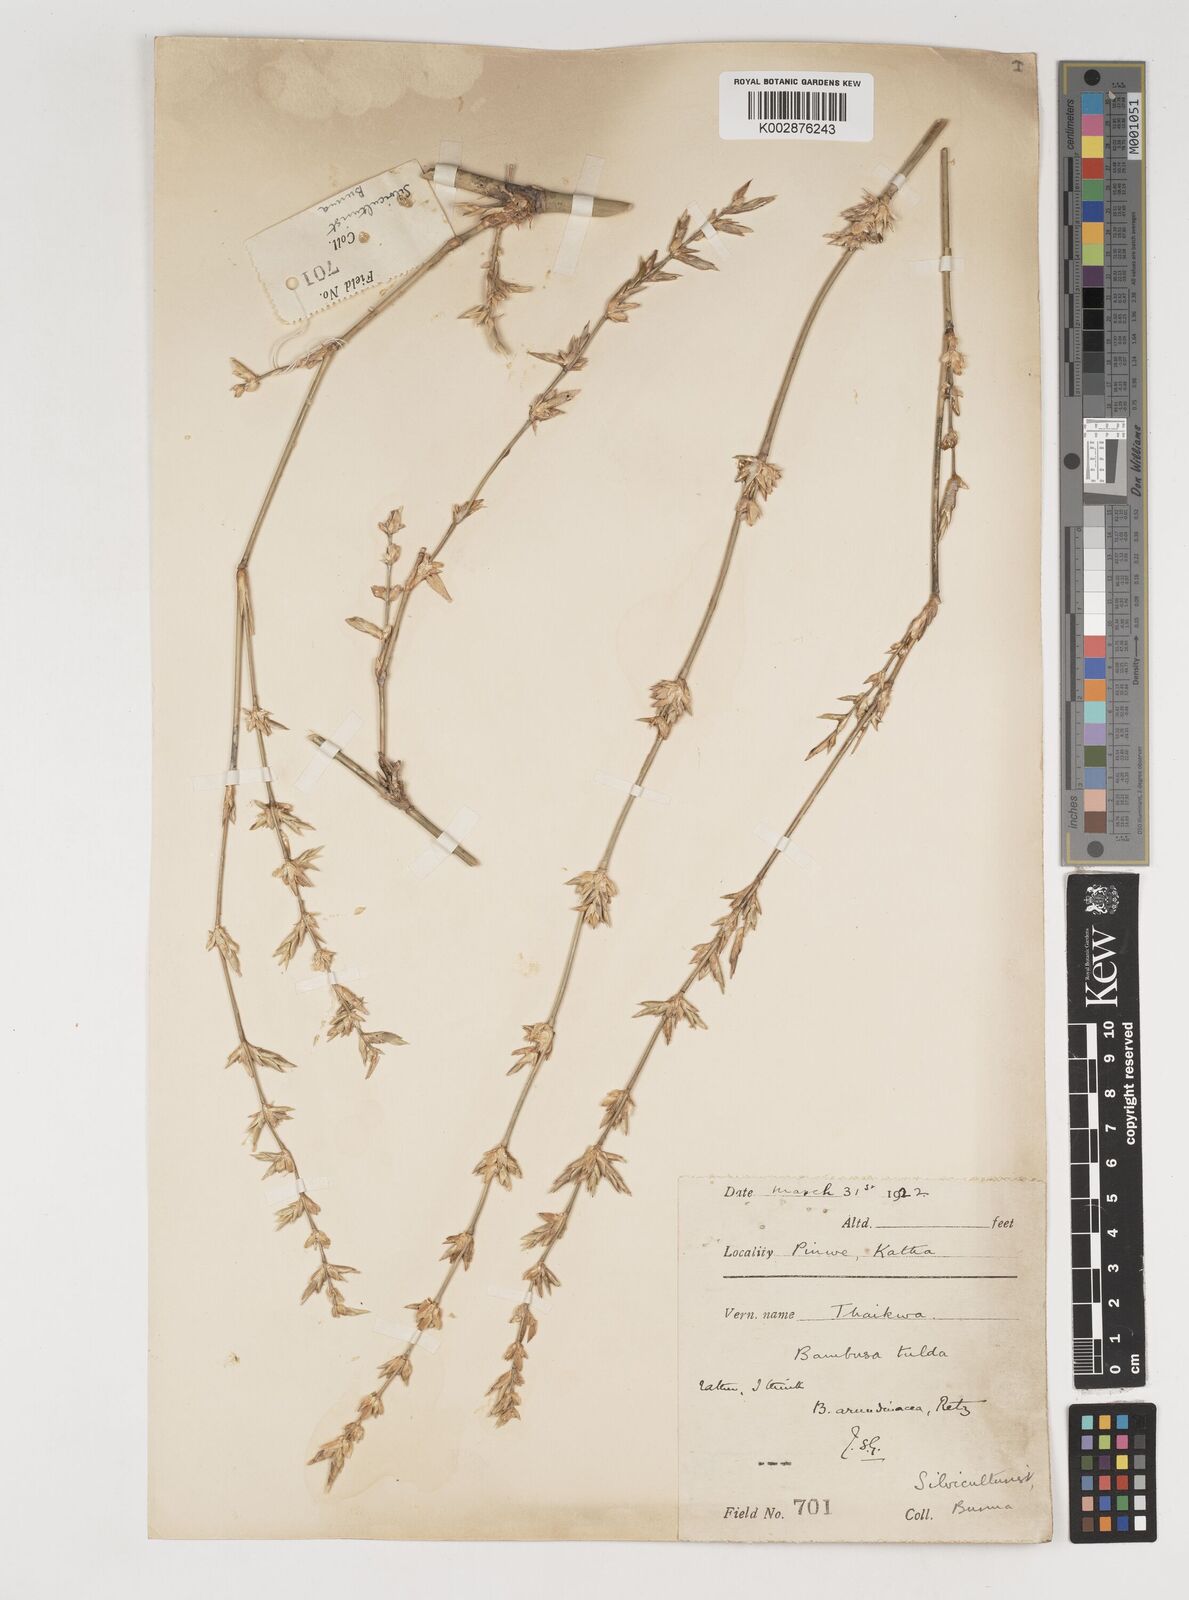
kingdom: Plantae
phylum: Tracheophyta
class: Liliopsida
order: Poales
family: Poaceae
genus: Bambusa
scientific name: Bambusa bambos
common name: Indian thorny bamboo
